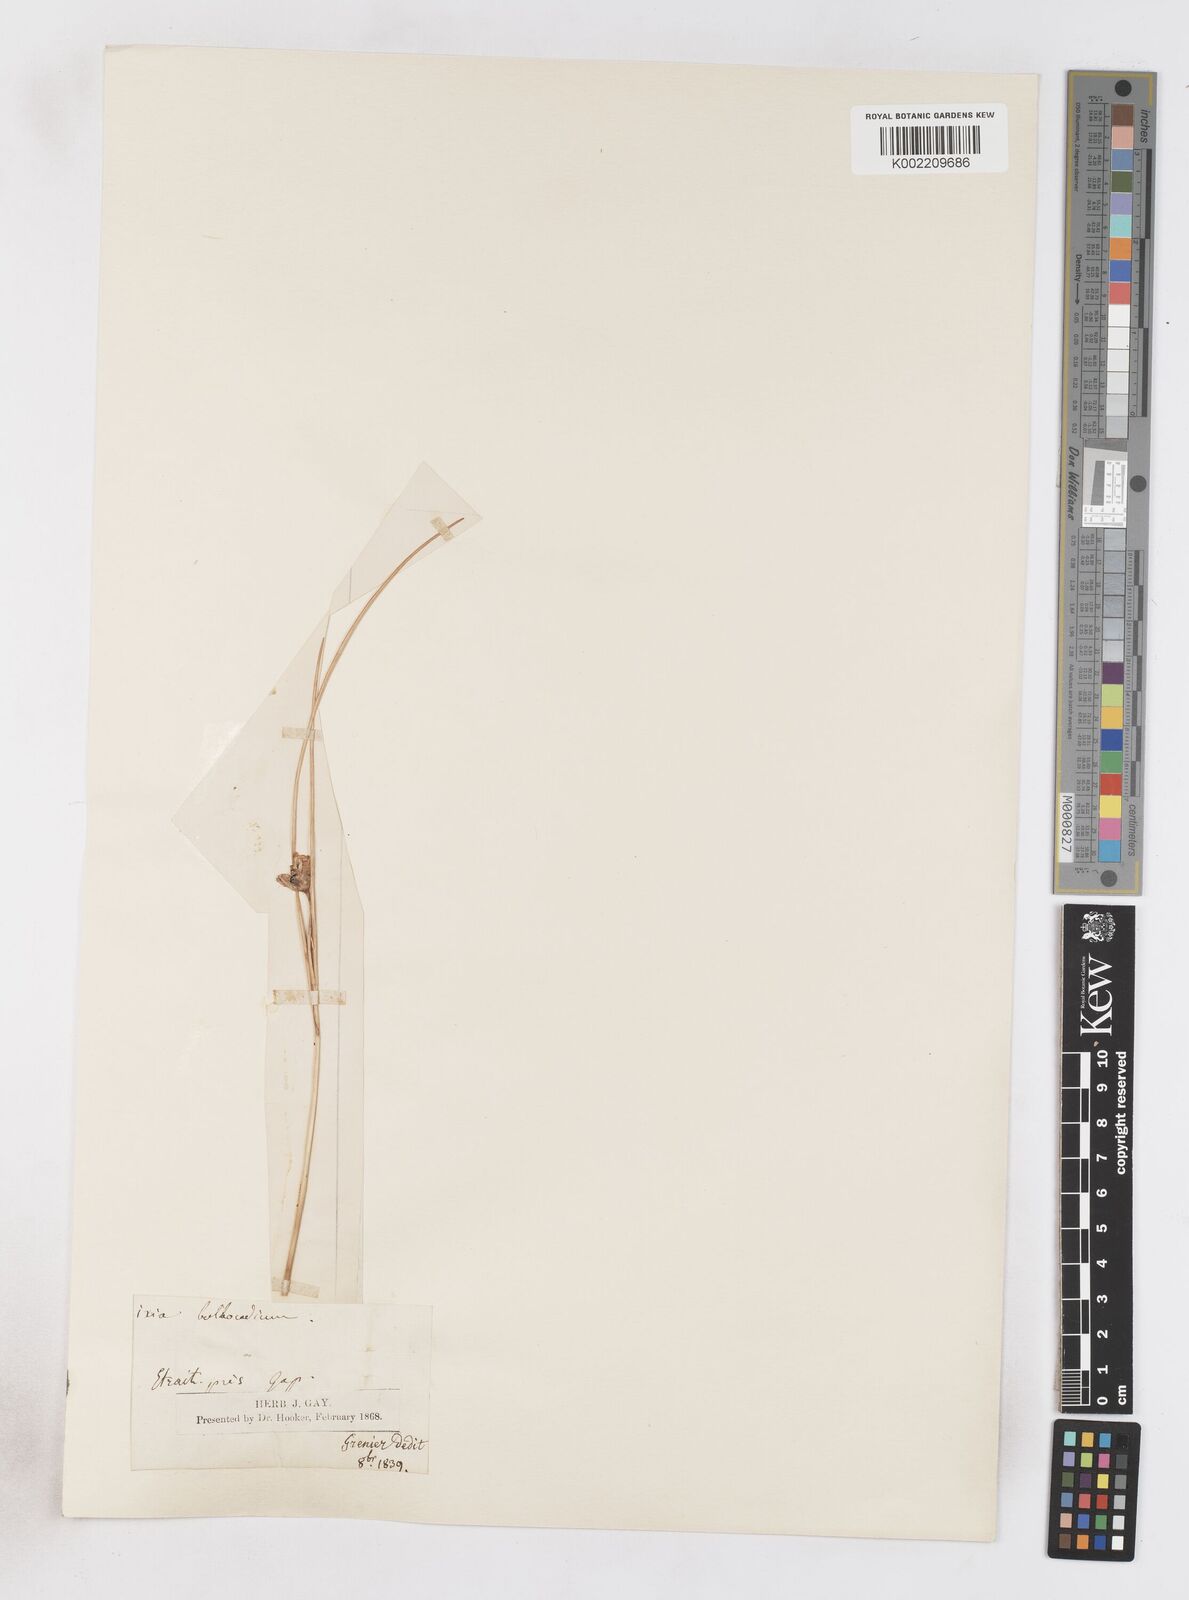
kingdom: Plantae
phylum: Tracheophyta
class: Liliopsida
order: Asparagales
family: Iridaceae
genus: Romulea
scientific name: Romulea ramiflora
